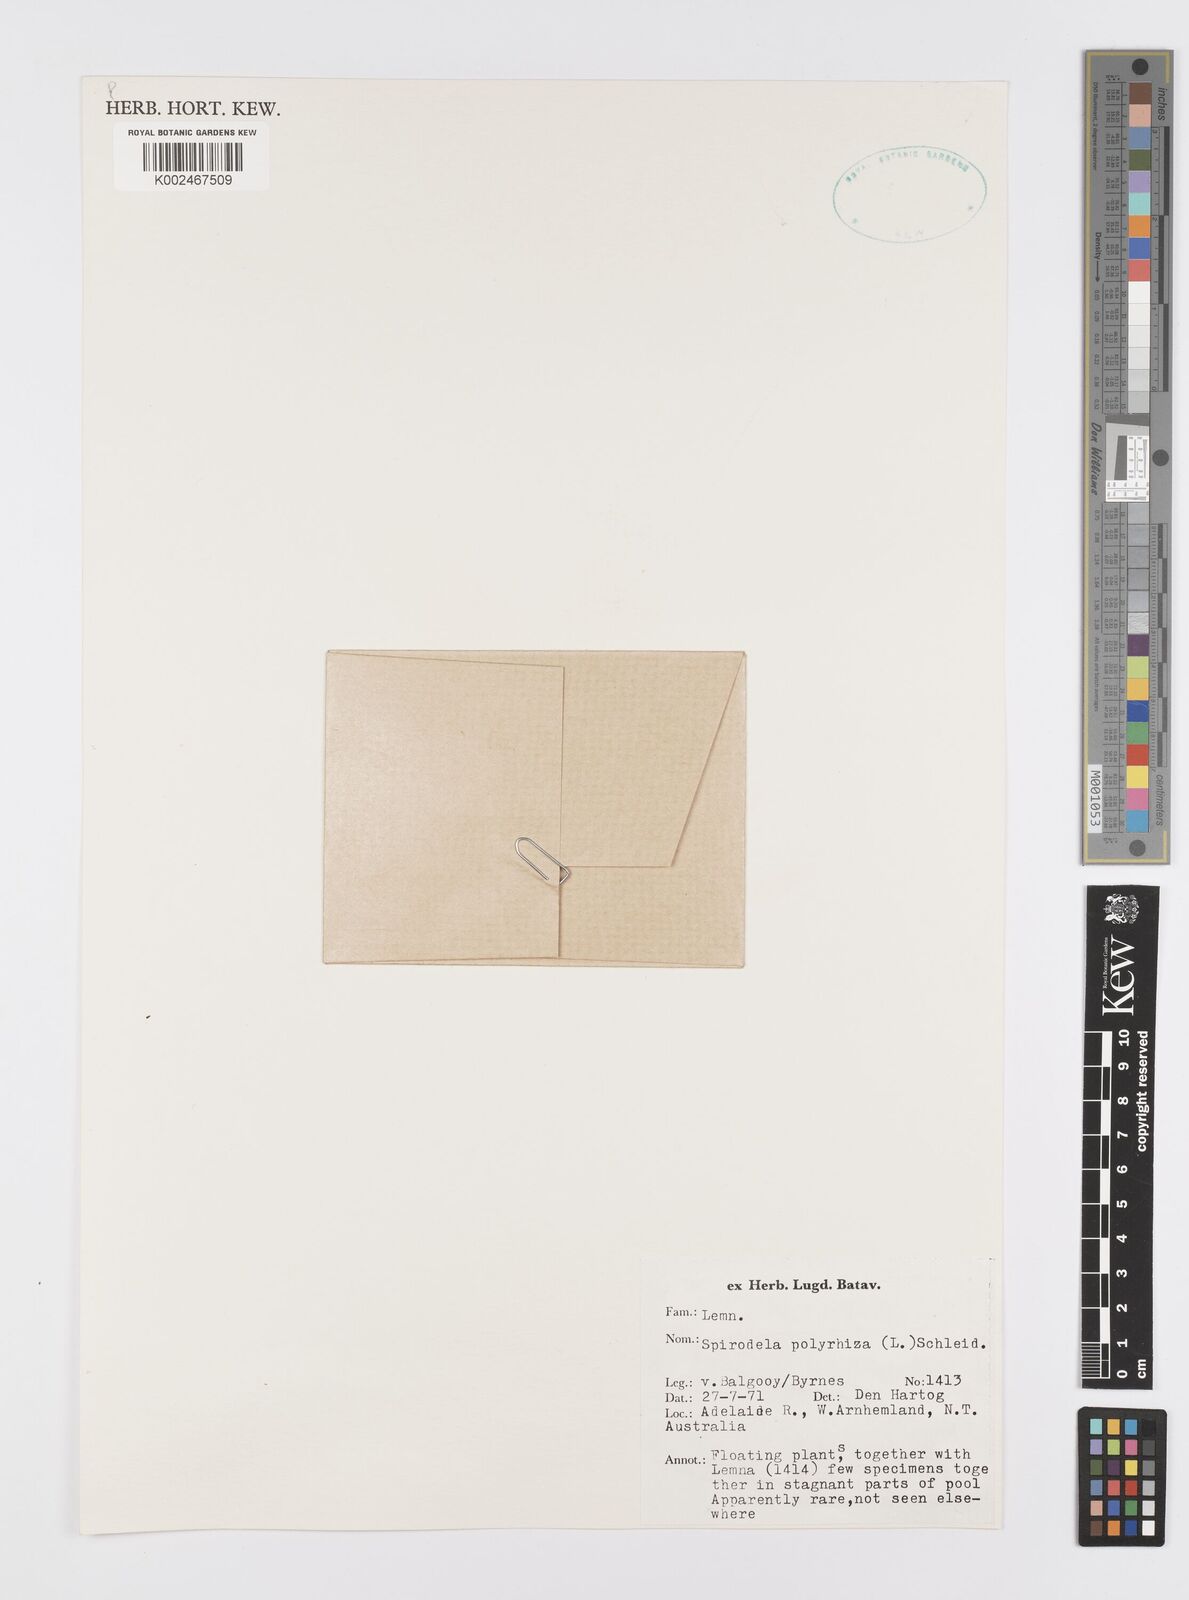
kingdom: Plantae
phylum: Tracheophyta
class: Liliopsida
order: Alismatales
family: Araceae
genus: Spirodela
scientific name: Spirodela polyrhiza
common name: Great duckweed
